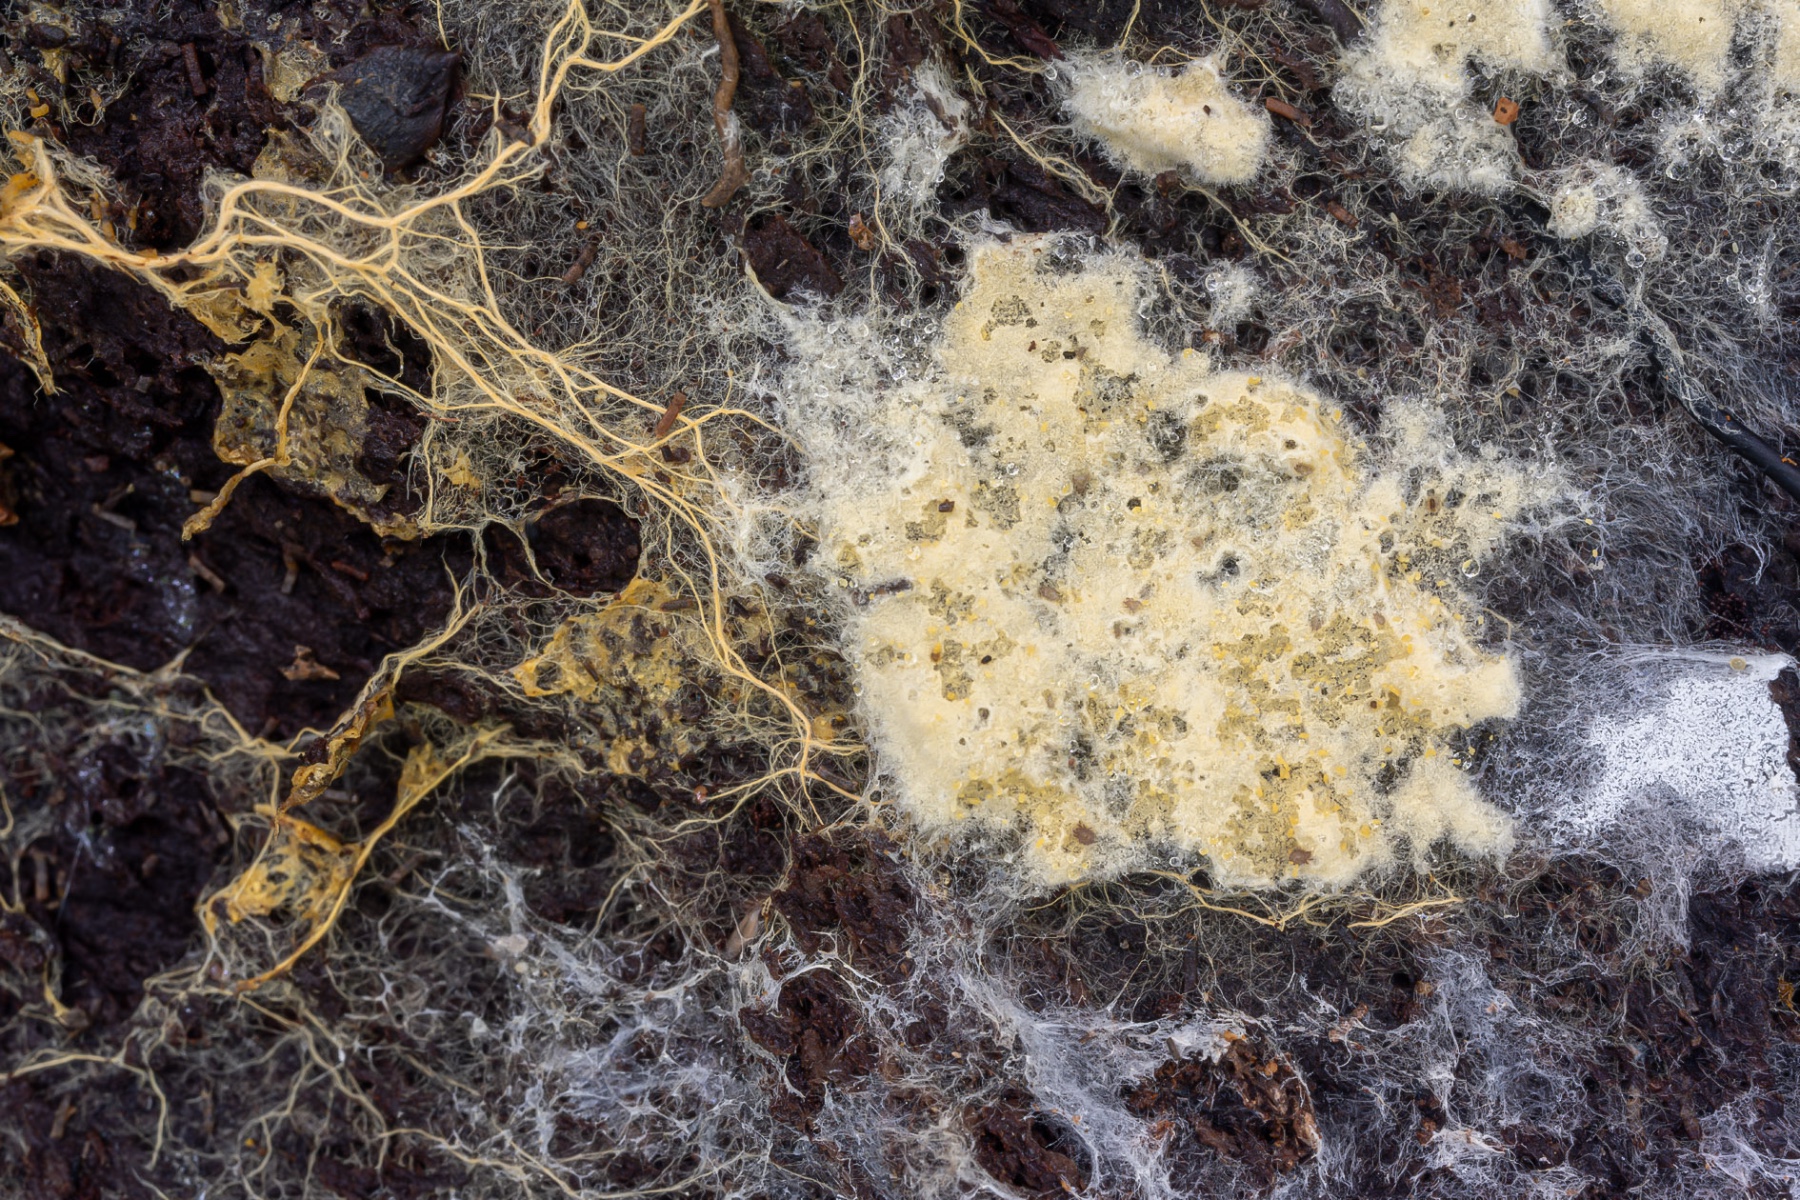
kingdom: Fungi
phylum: Basidiomycota
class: Agaricomycetes
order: Atheliales
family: Atheliaceae
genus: Amphinema
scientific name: Amphinema byssoides
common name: almindelig rodhinde
